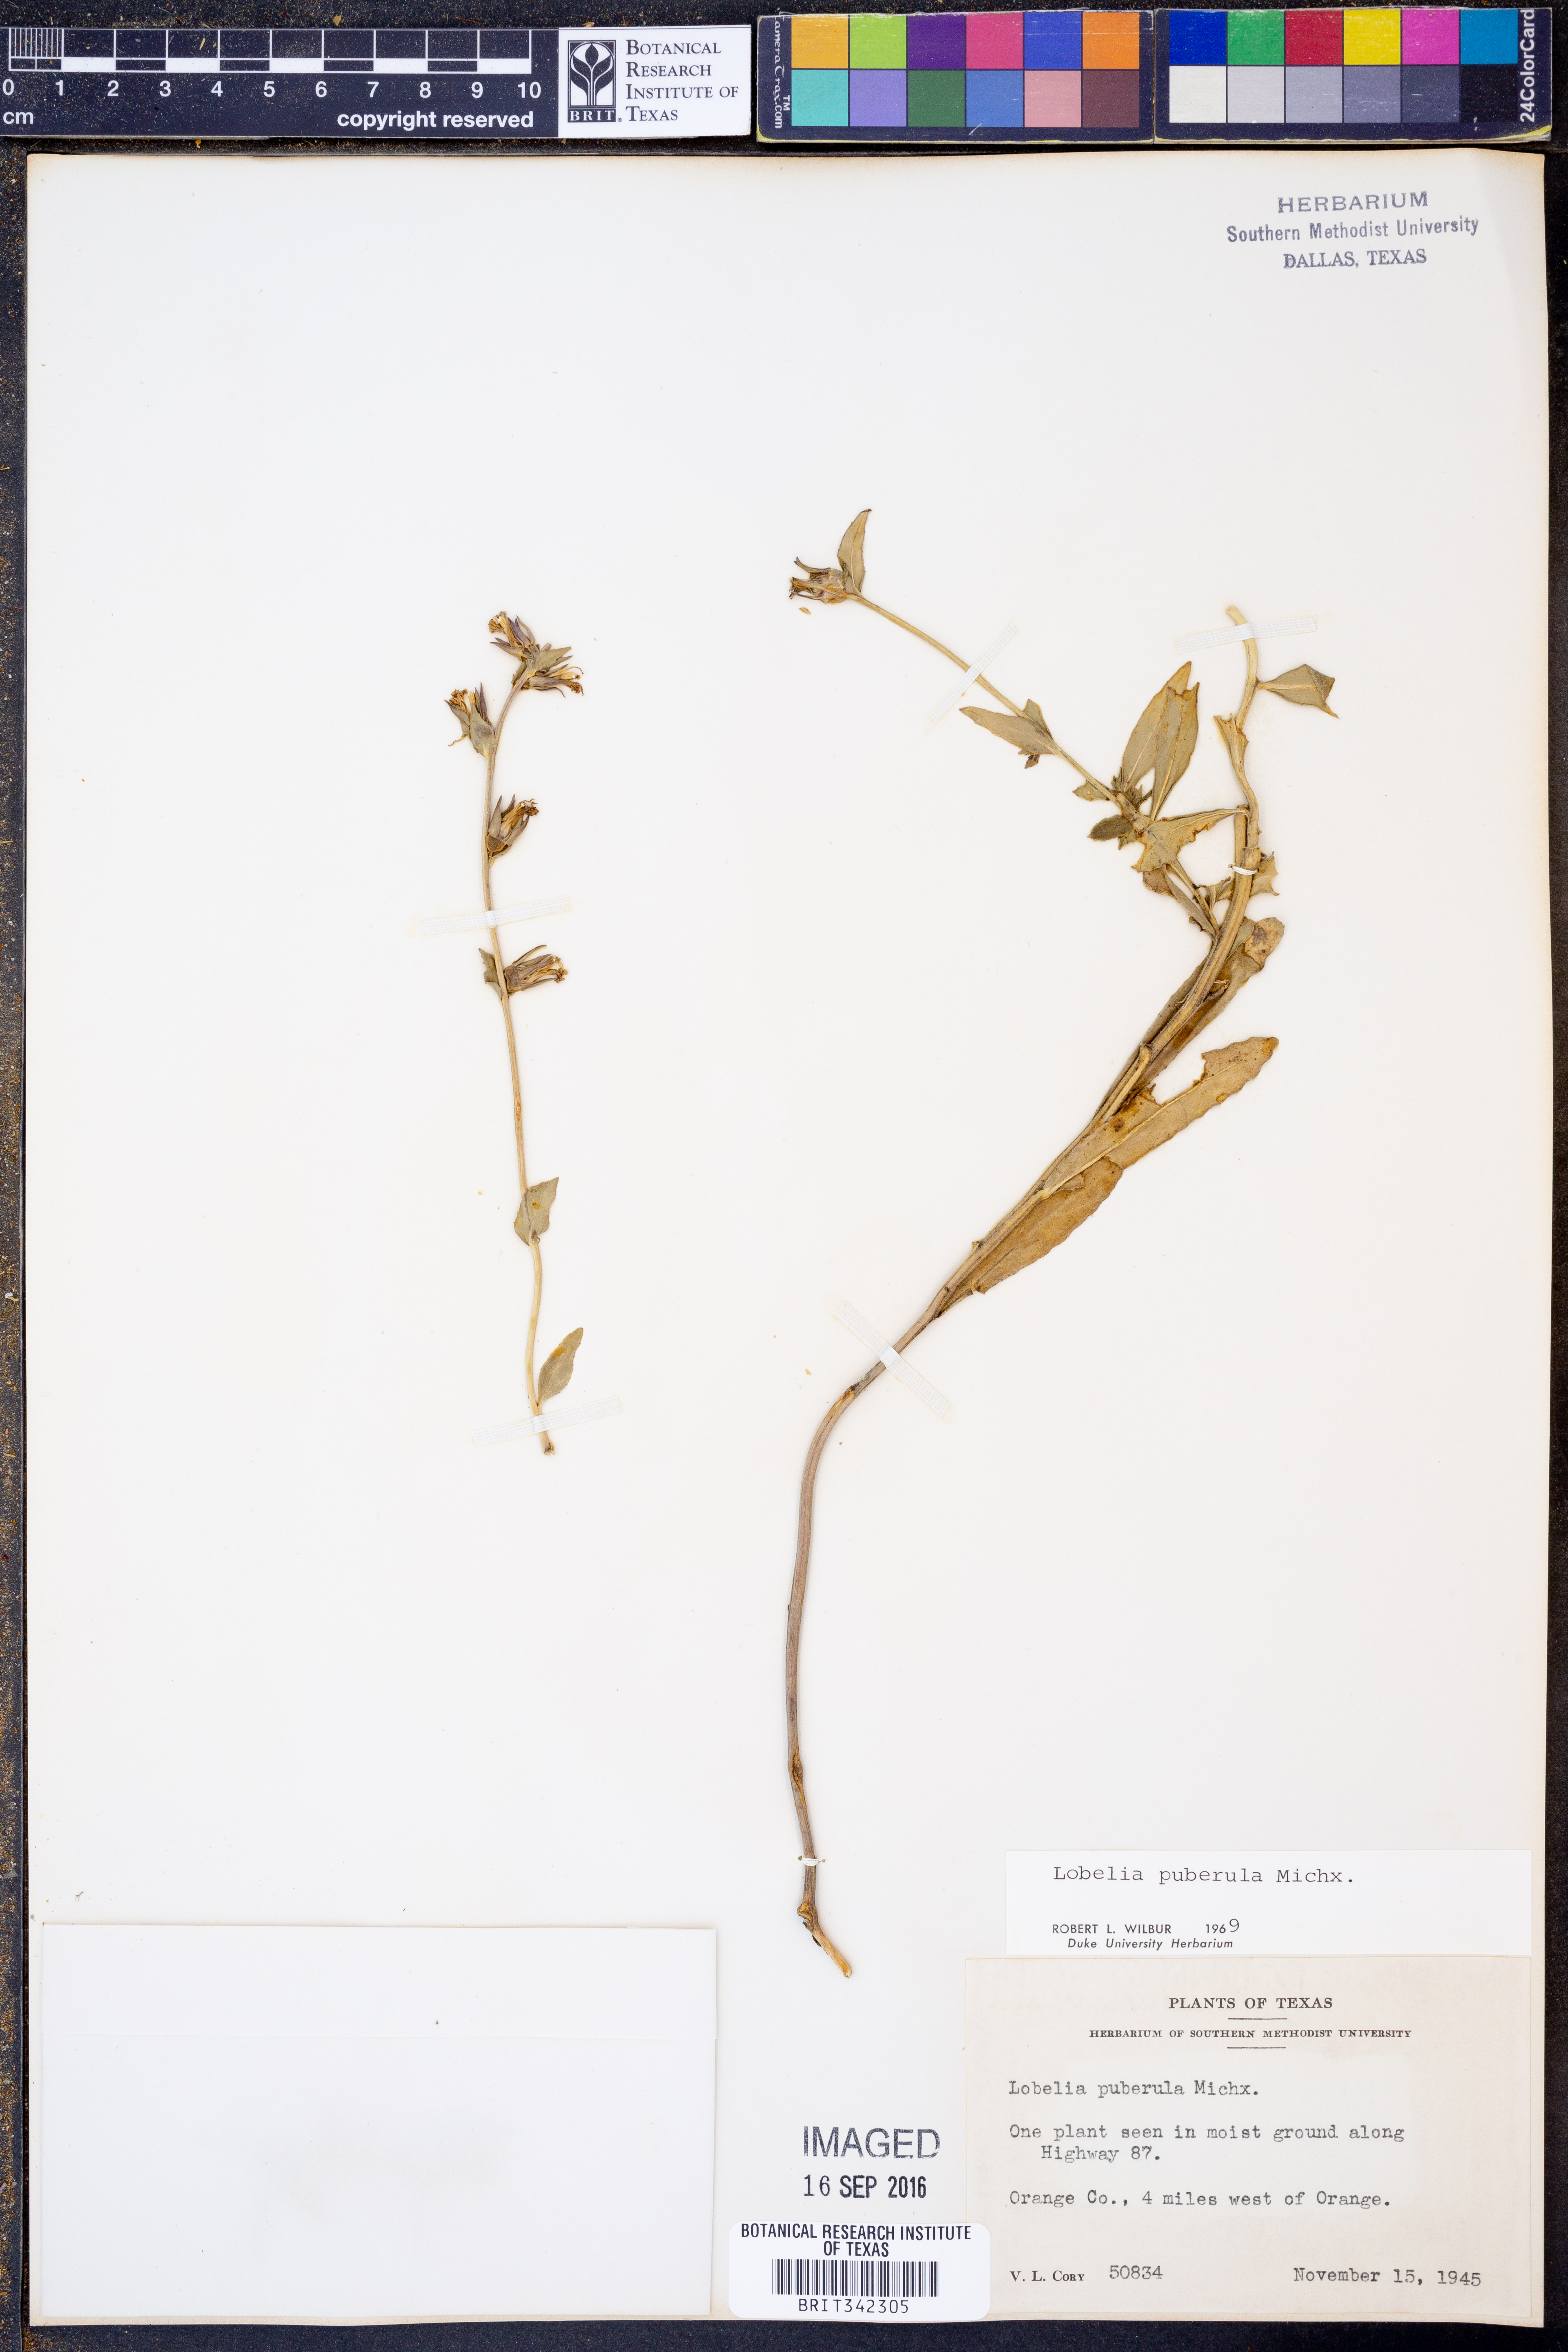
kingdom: Plantae
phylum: Tracheophyta
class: Magnoliopsida
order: Asterales
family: Campanulaceae
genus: Lobelia
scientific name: Lobelia puberula
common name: Purple dewdrop
